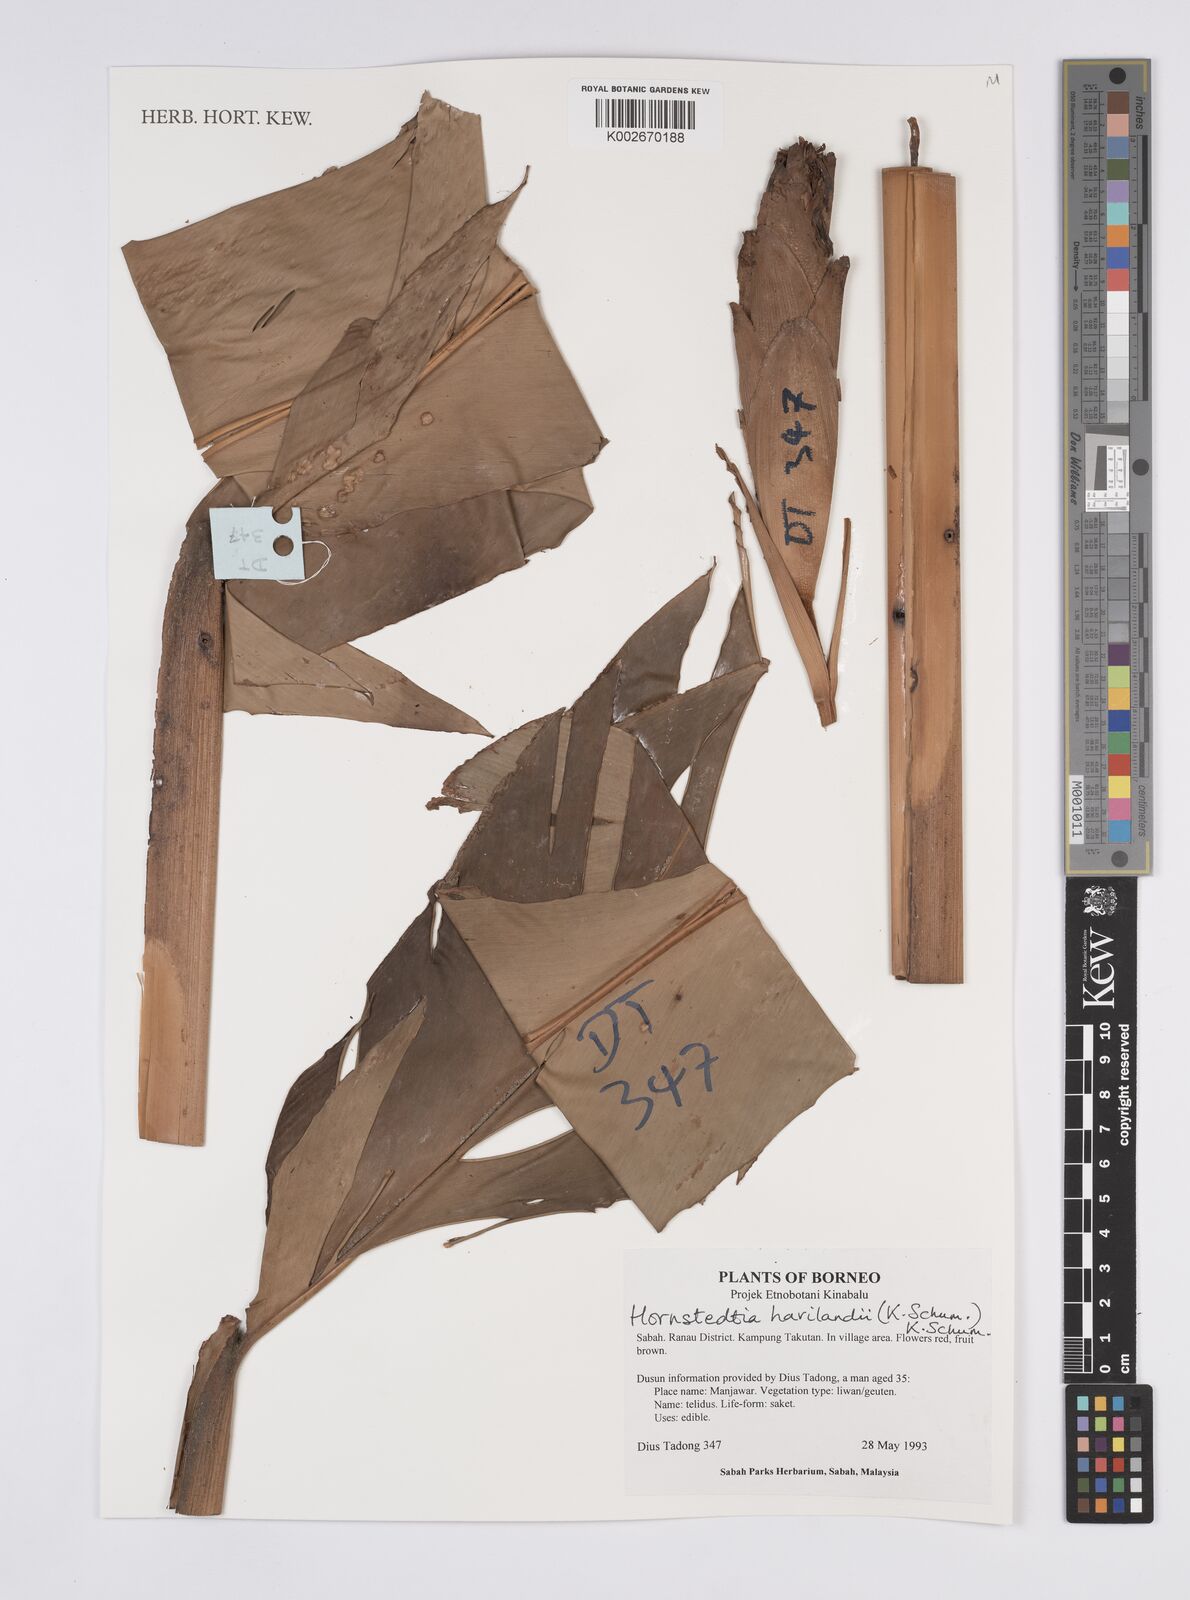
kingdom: Plantae
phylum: Tracheophyta
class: Liliopsida
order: Zingiberales
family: Zingiberaceae
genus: Hornstedtia
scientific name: Hornstedtia havilandii
